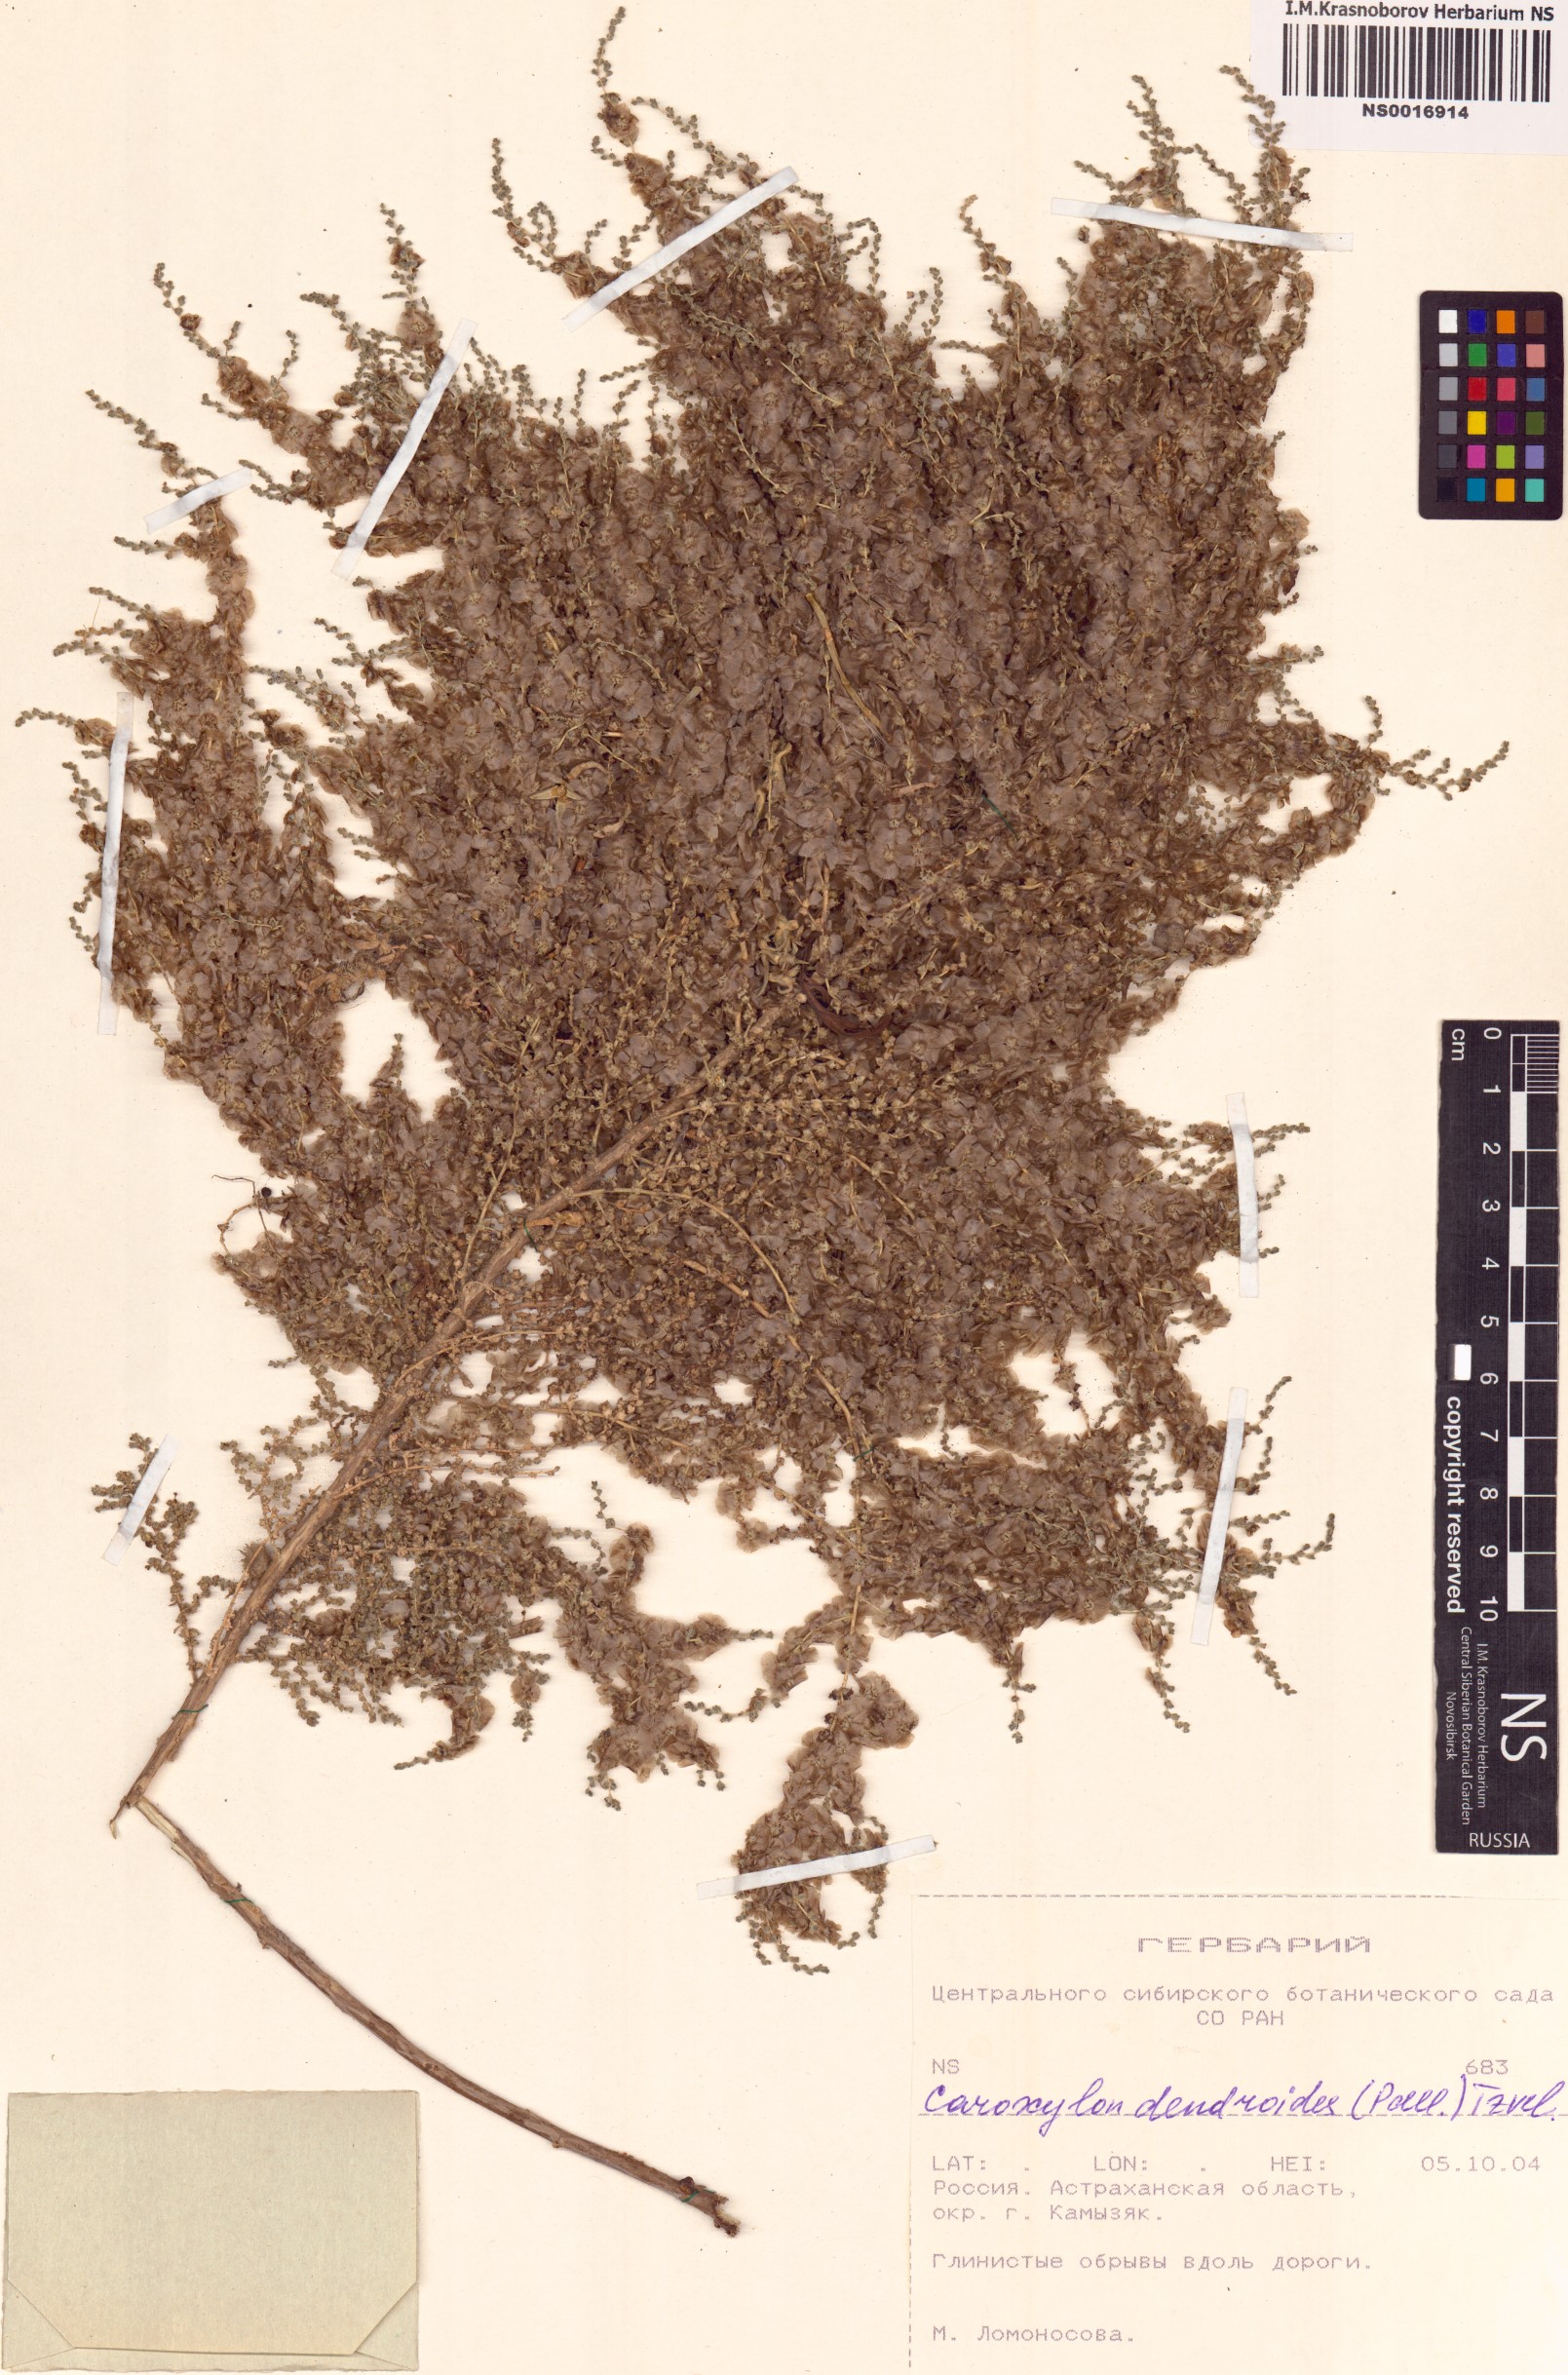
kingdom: Plantae
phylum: Tracheophyta
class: Magnoliopsida
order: Caryophyllales
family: Amaranthaceae
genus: Nitrosalsola
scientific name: Nitrosalsola dendroides
